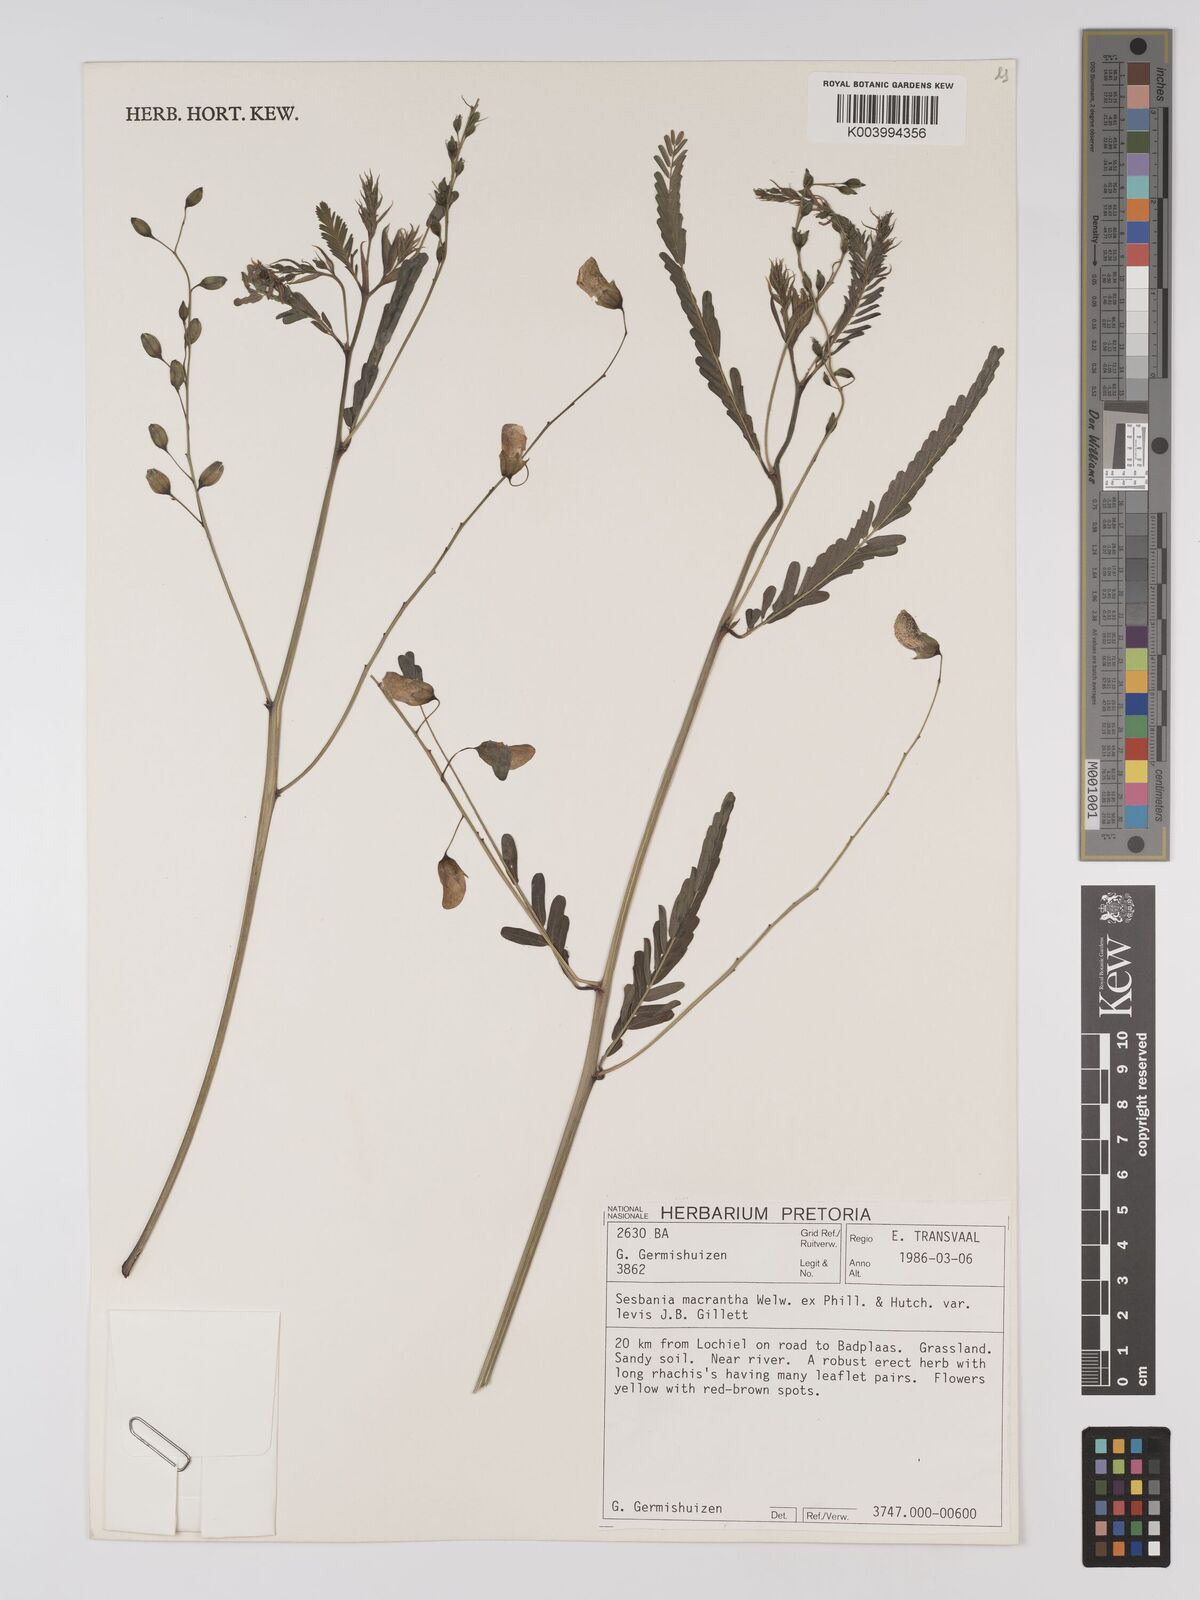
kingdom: Plantae
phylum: Tracheophyta
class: Magnoliopsida
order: Fabales
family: Fabaceae
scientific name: Fabaceae
